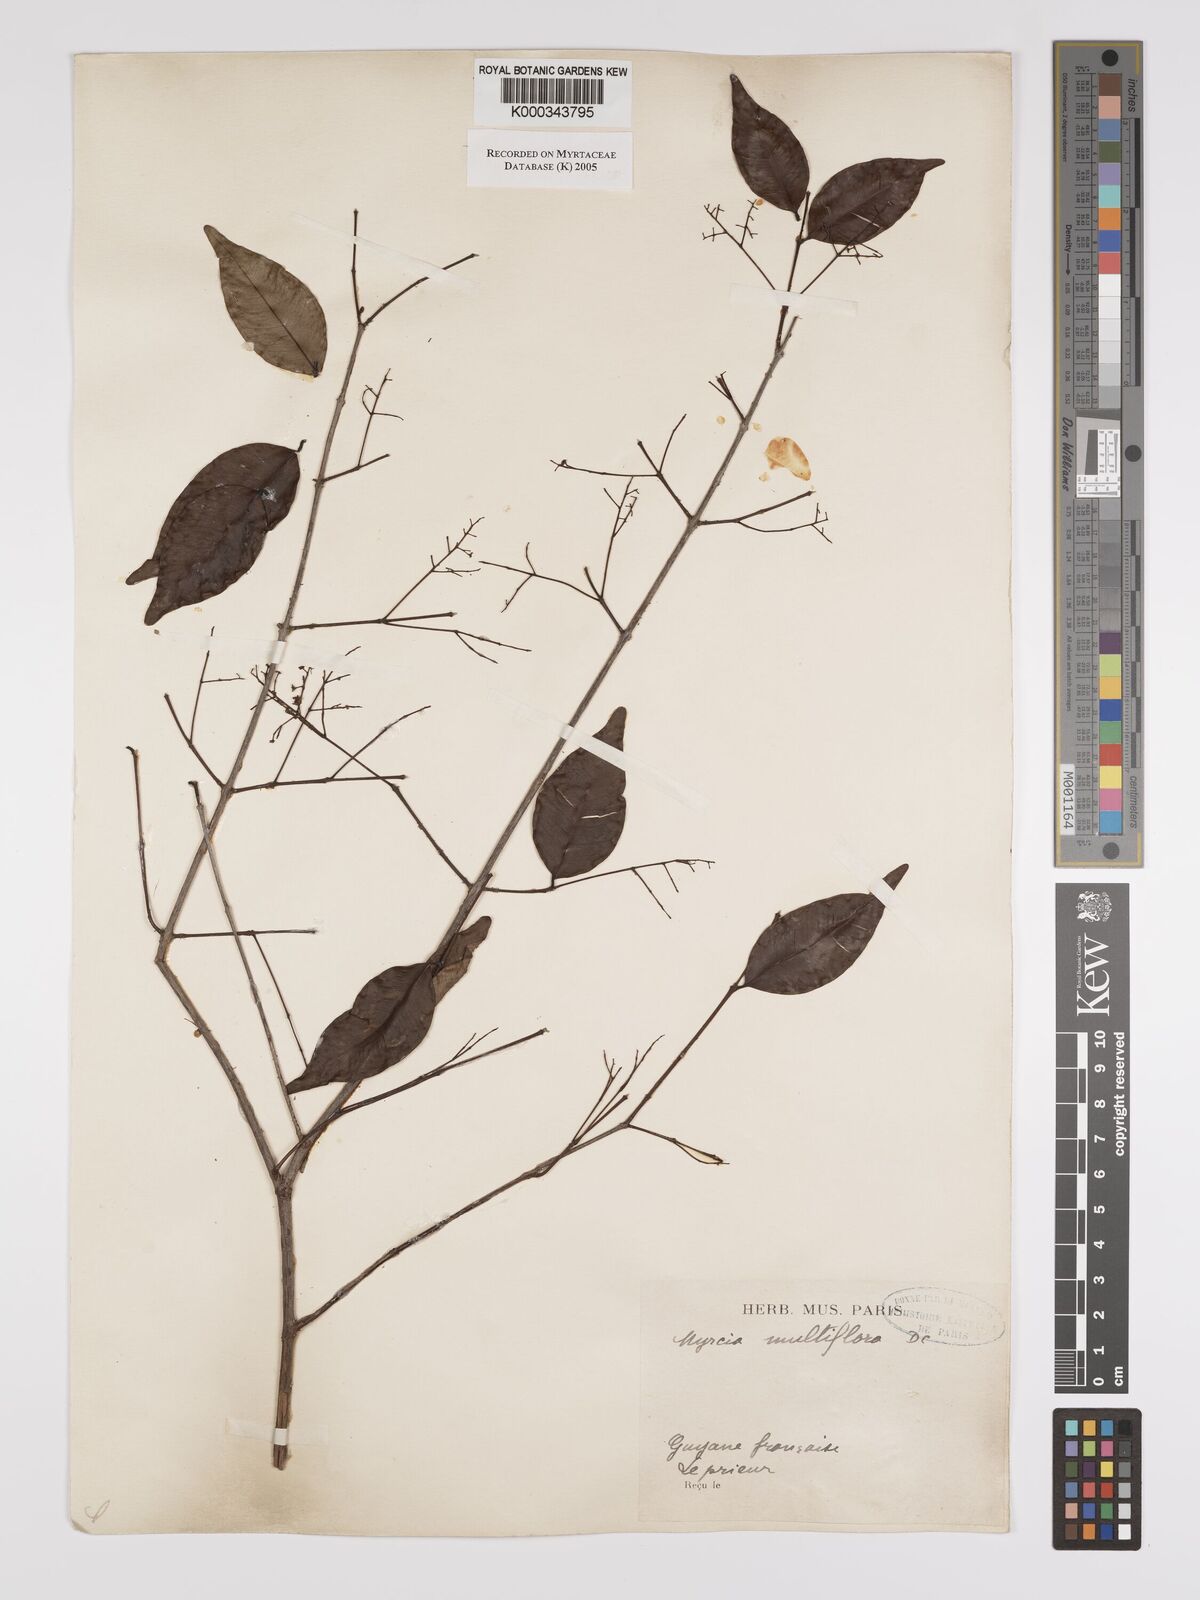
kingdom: Plantae
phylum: Tracheophyta
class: Magnoliopsida
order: Myrtales
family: Myrtaceae
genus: Myrcia
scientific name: Myrcia multiflora
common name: Pedra hume
